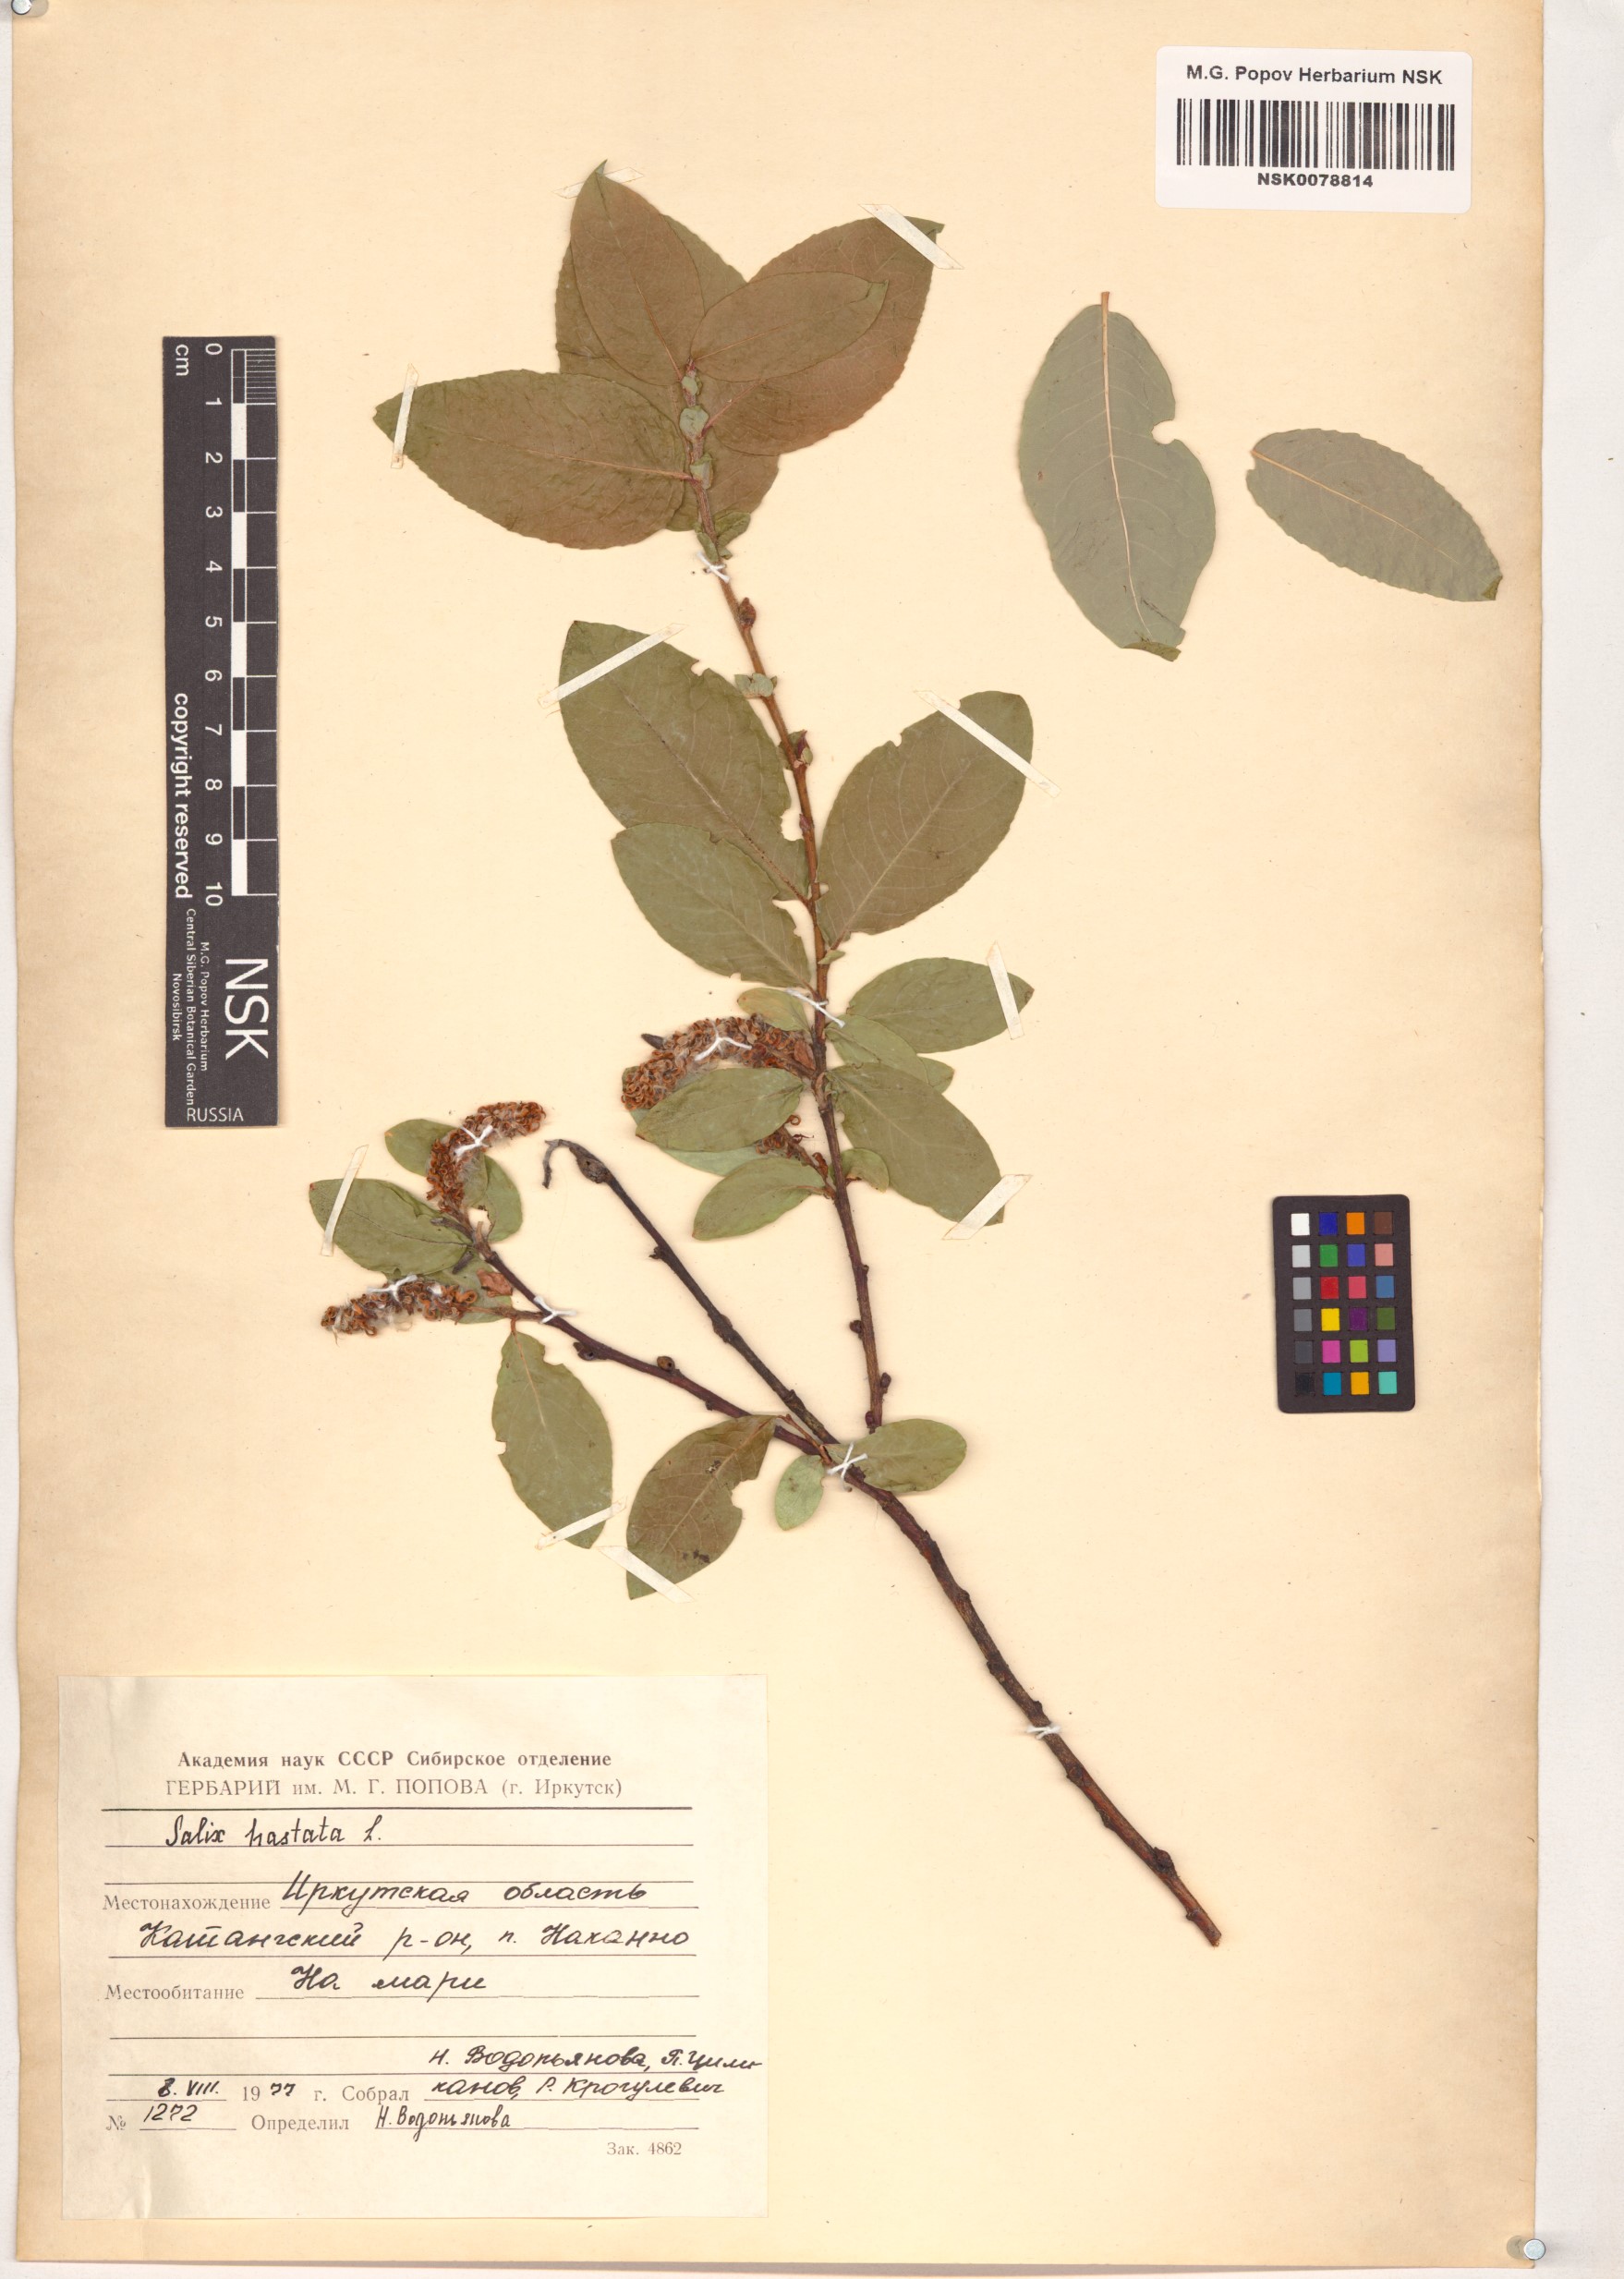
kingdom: Plantae
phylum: Tracheophyta
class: Magnoliopsida
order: Malpighiales
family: Salicaceae
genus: Salix
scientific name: Salix hastata
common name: Halberd willow
